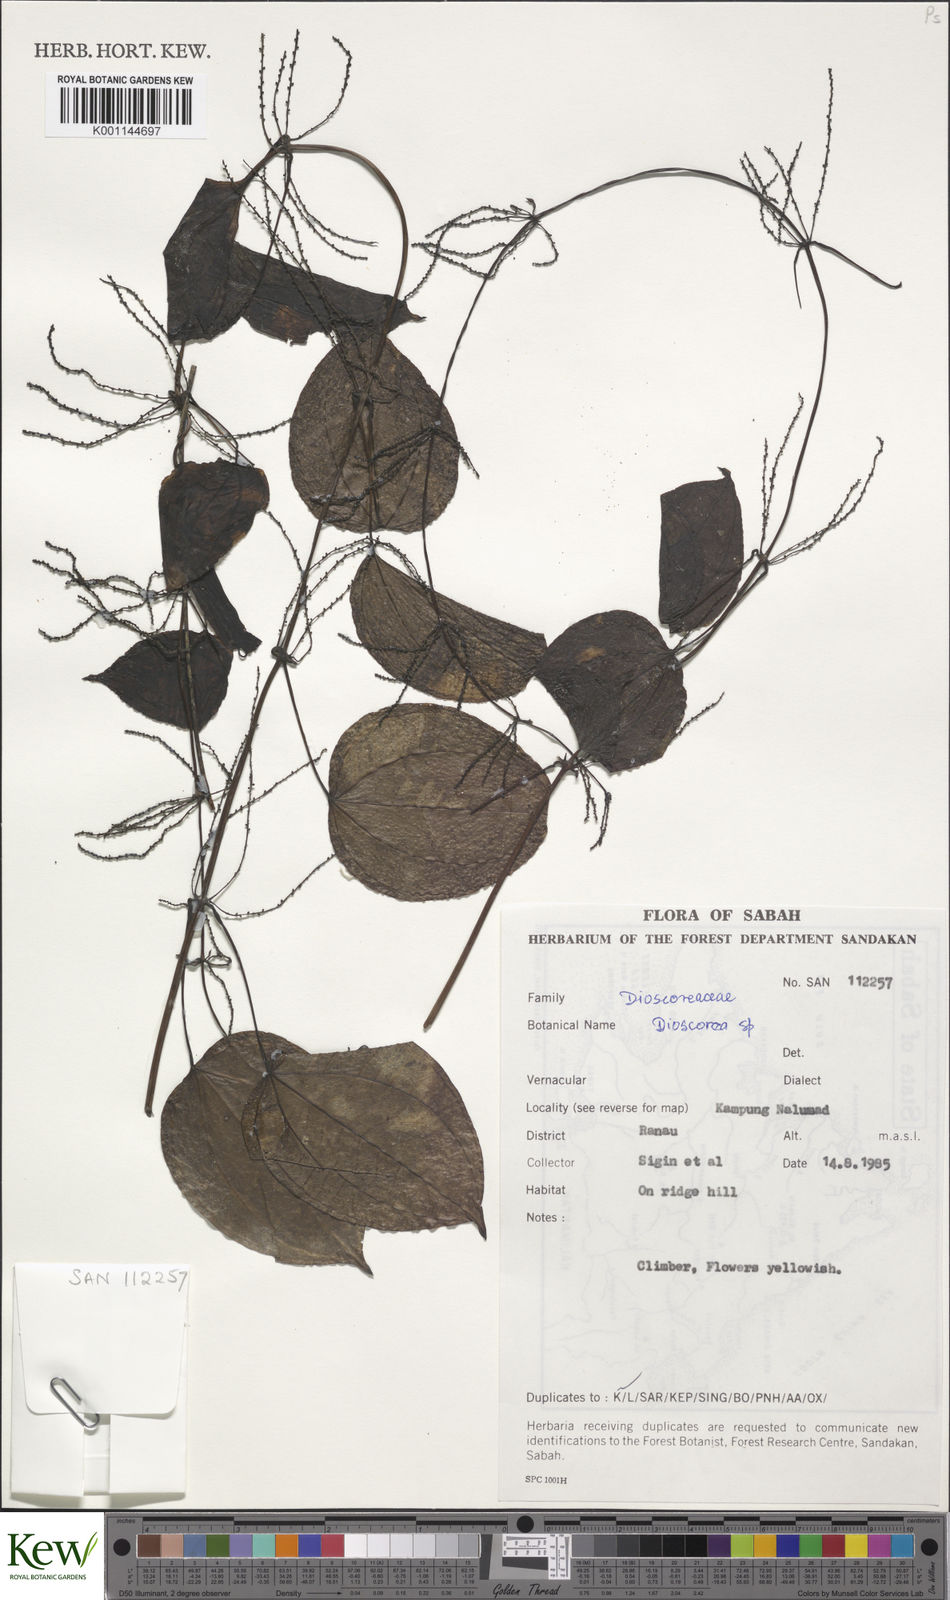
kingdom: Plantae
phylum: Tracheophyta
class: Liliopsida
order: Dioscoreales
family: Dioscoreaceae
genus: Dioscorea
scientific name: Dioscorea
